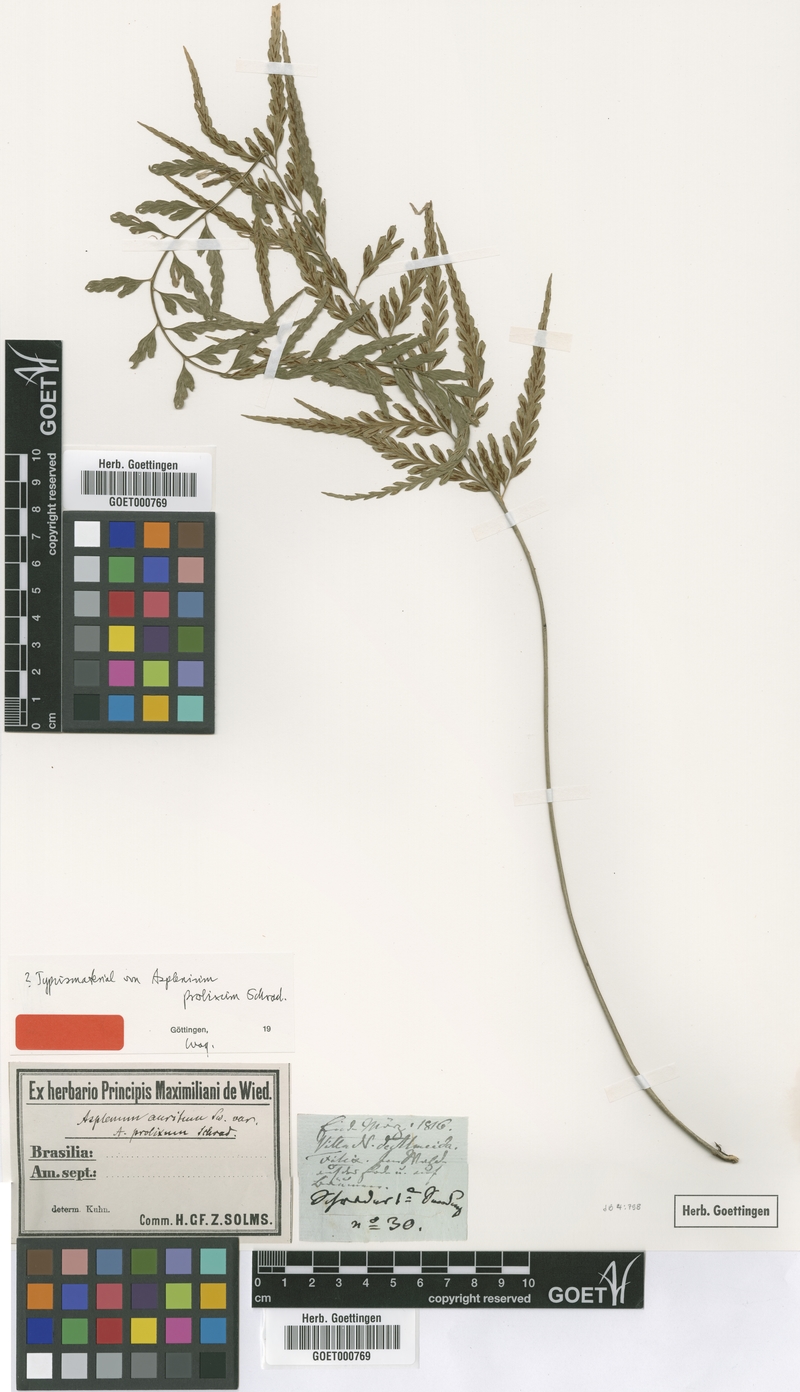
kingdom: Plantae
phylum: Tracheophyta
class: Polypodiopsida
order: Polypodiales
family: Aspleniaceae
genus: Asplenium
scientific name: Asplenium auritum
